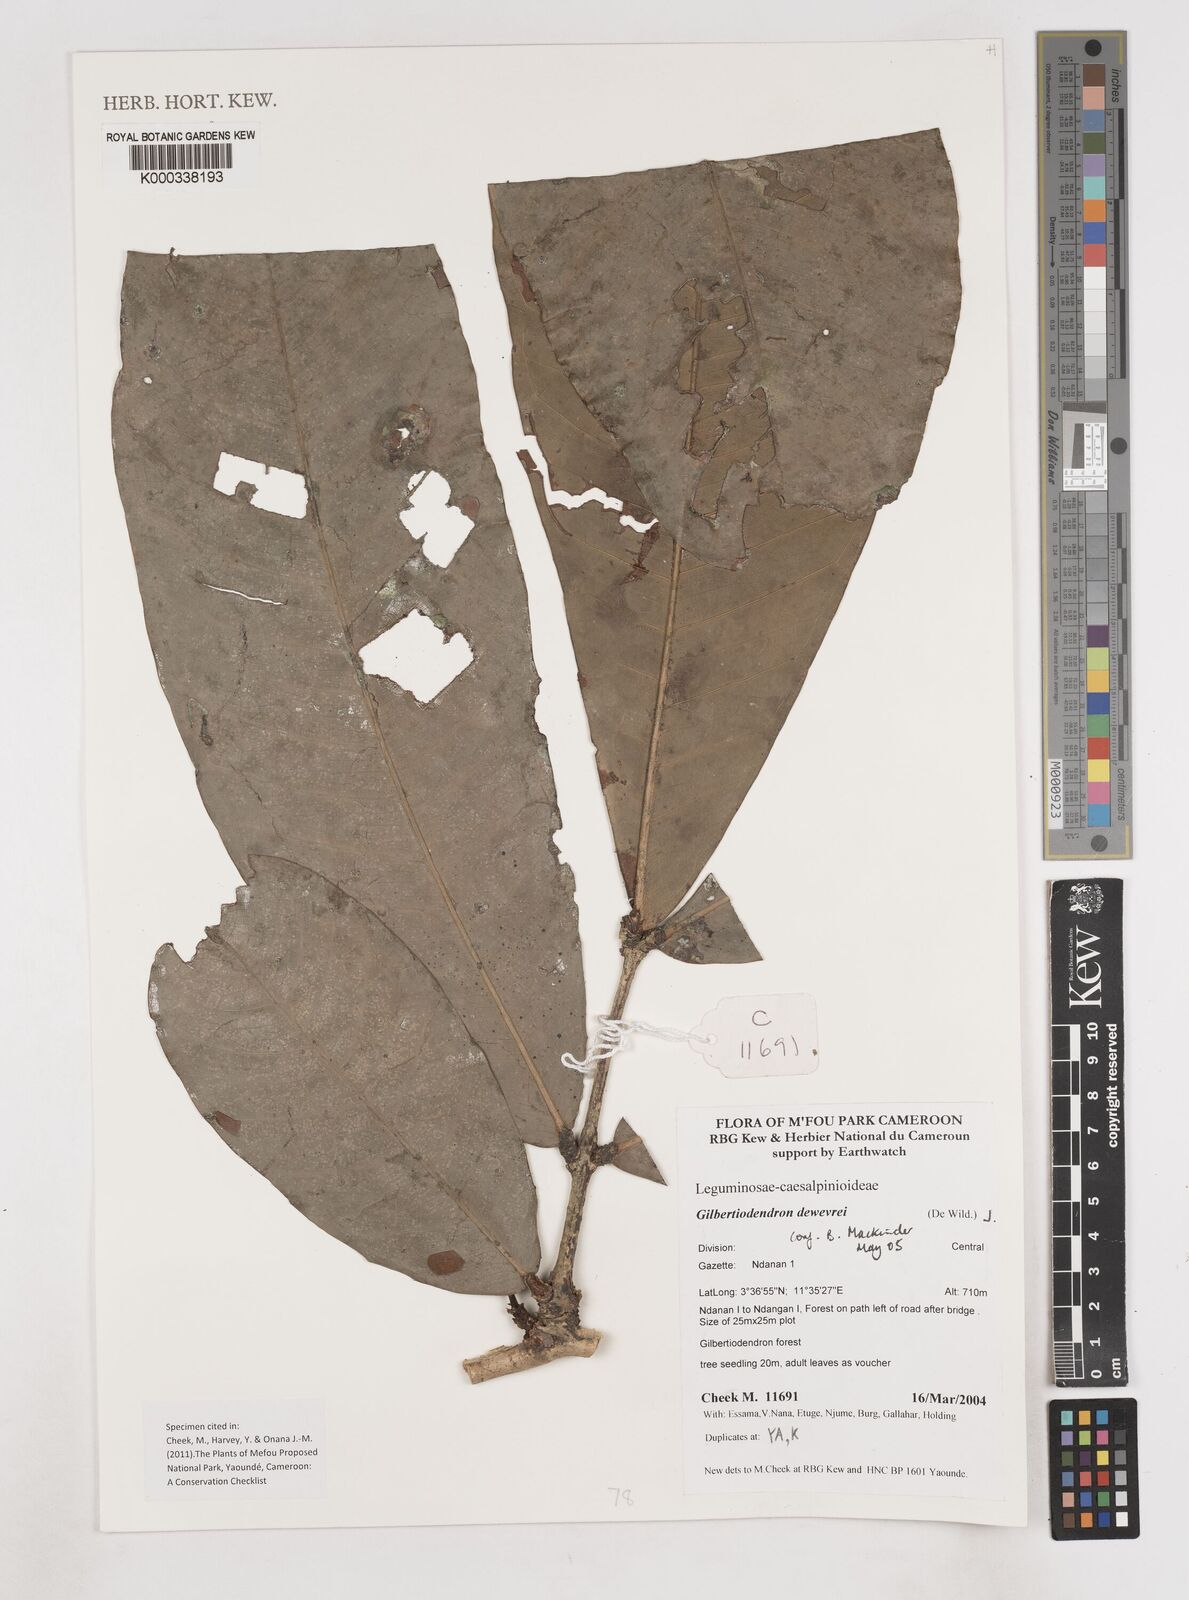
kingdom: Plantae
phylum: Tracheophyta
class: Magnoliopsida
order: Fabales
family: Fabaceae
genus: Gilbertiodendron
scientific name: Gilbertiodendron
